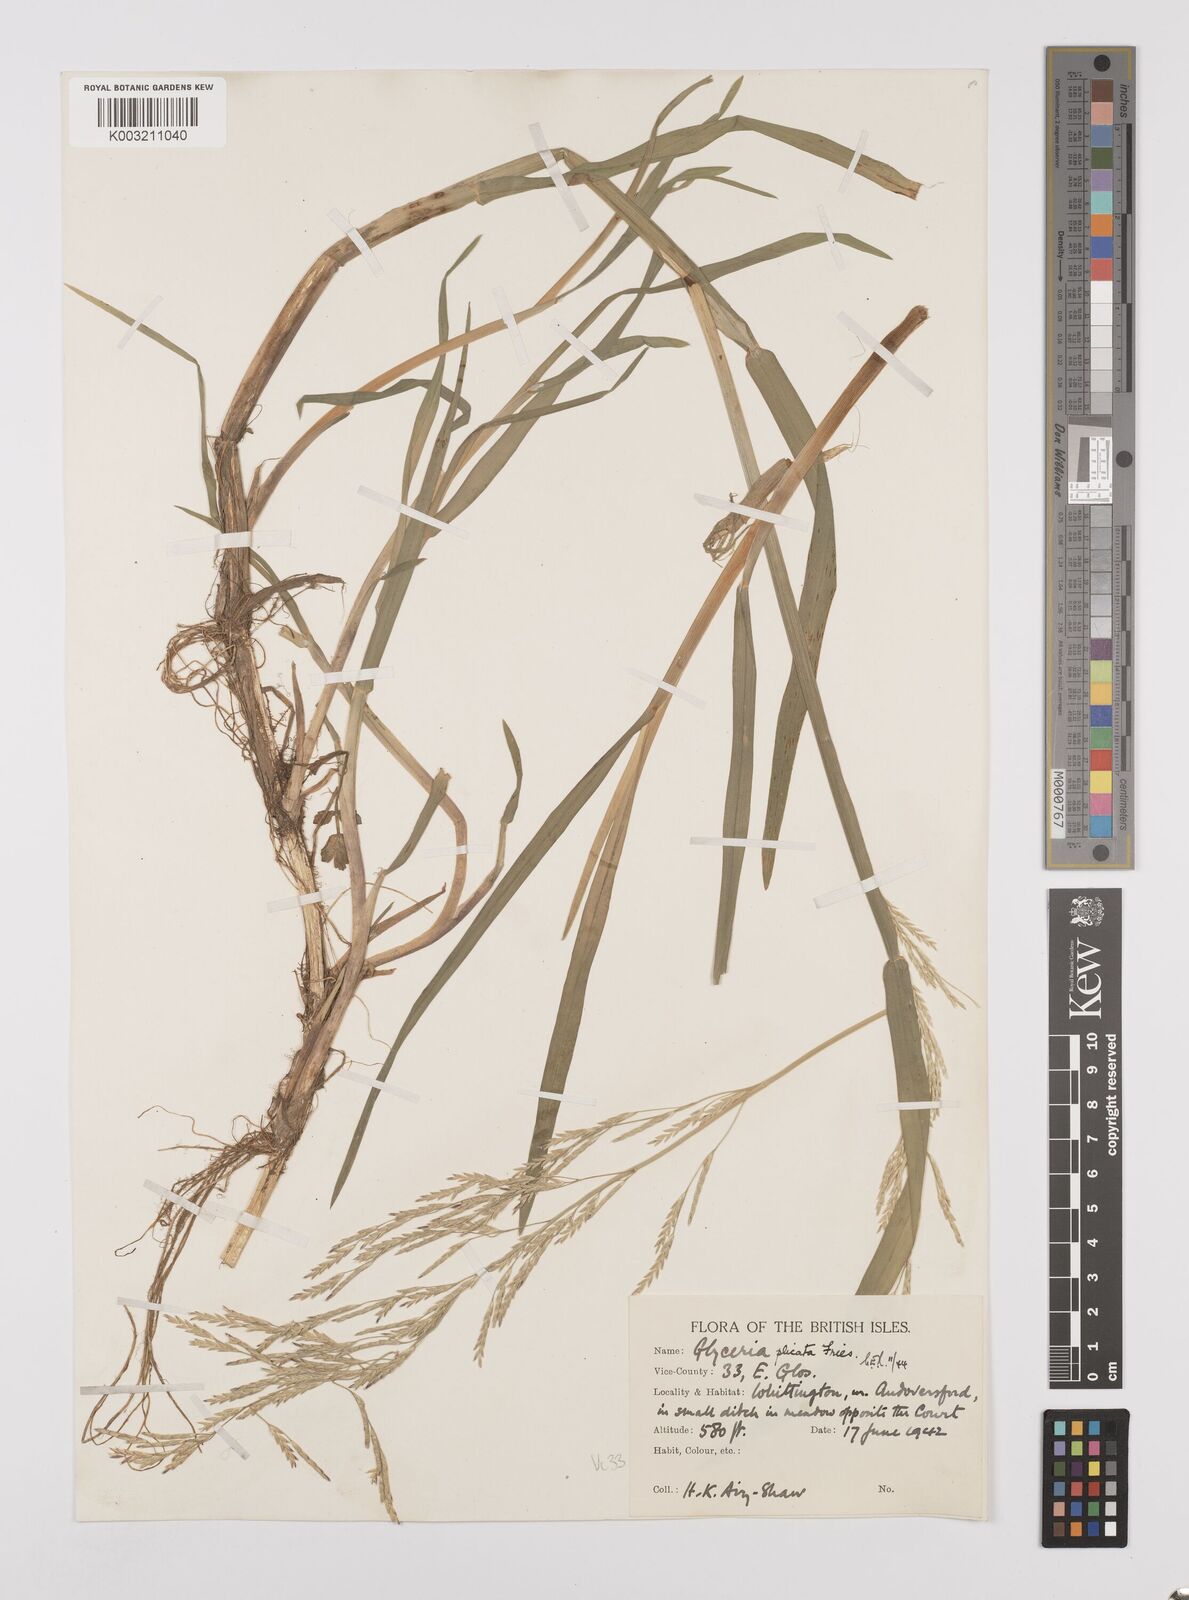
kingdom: Plantae
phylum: Tracheophyta
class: Liliopsida
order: Poales
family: Poaceae
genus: Glyceria
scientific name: Glyceria notata
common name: Plicate sweet-grass
